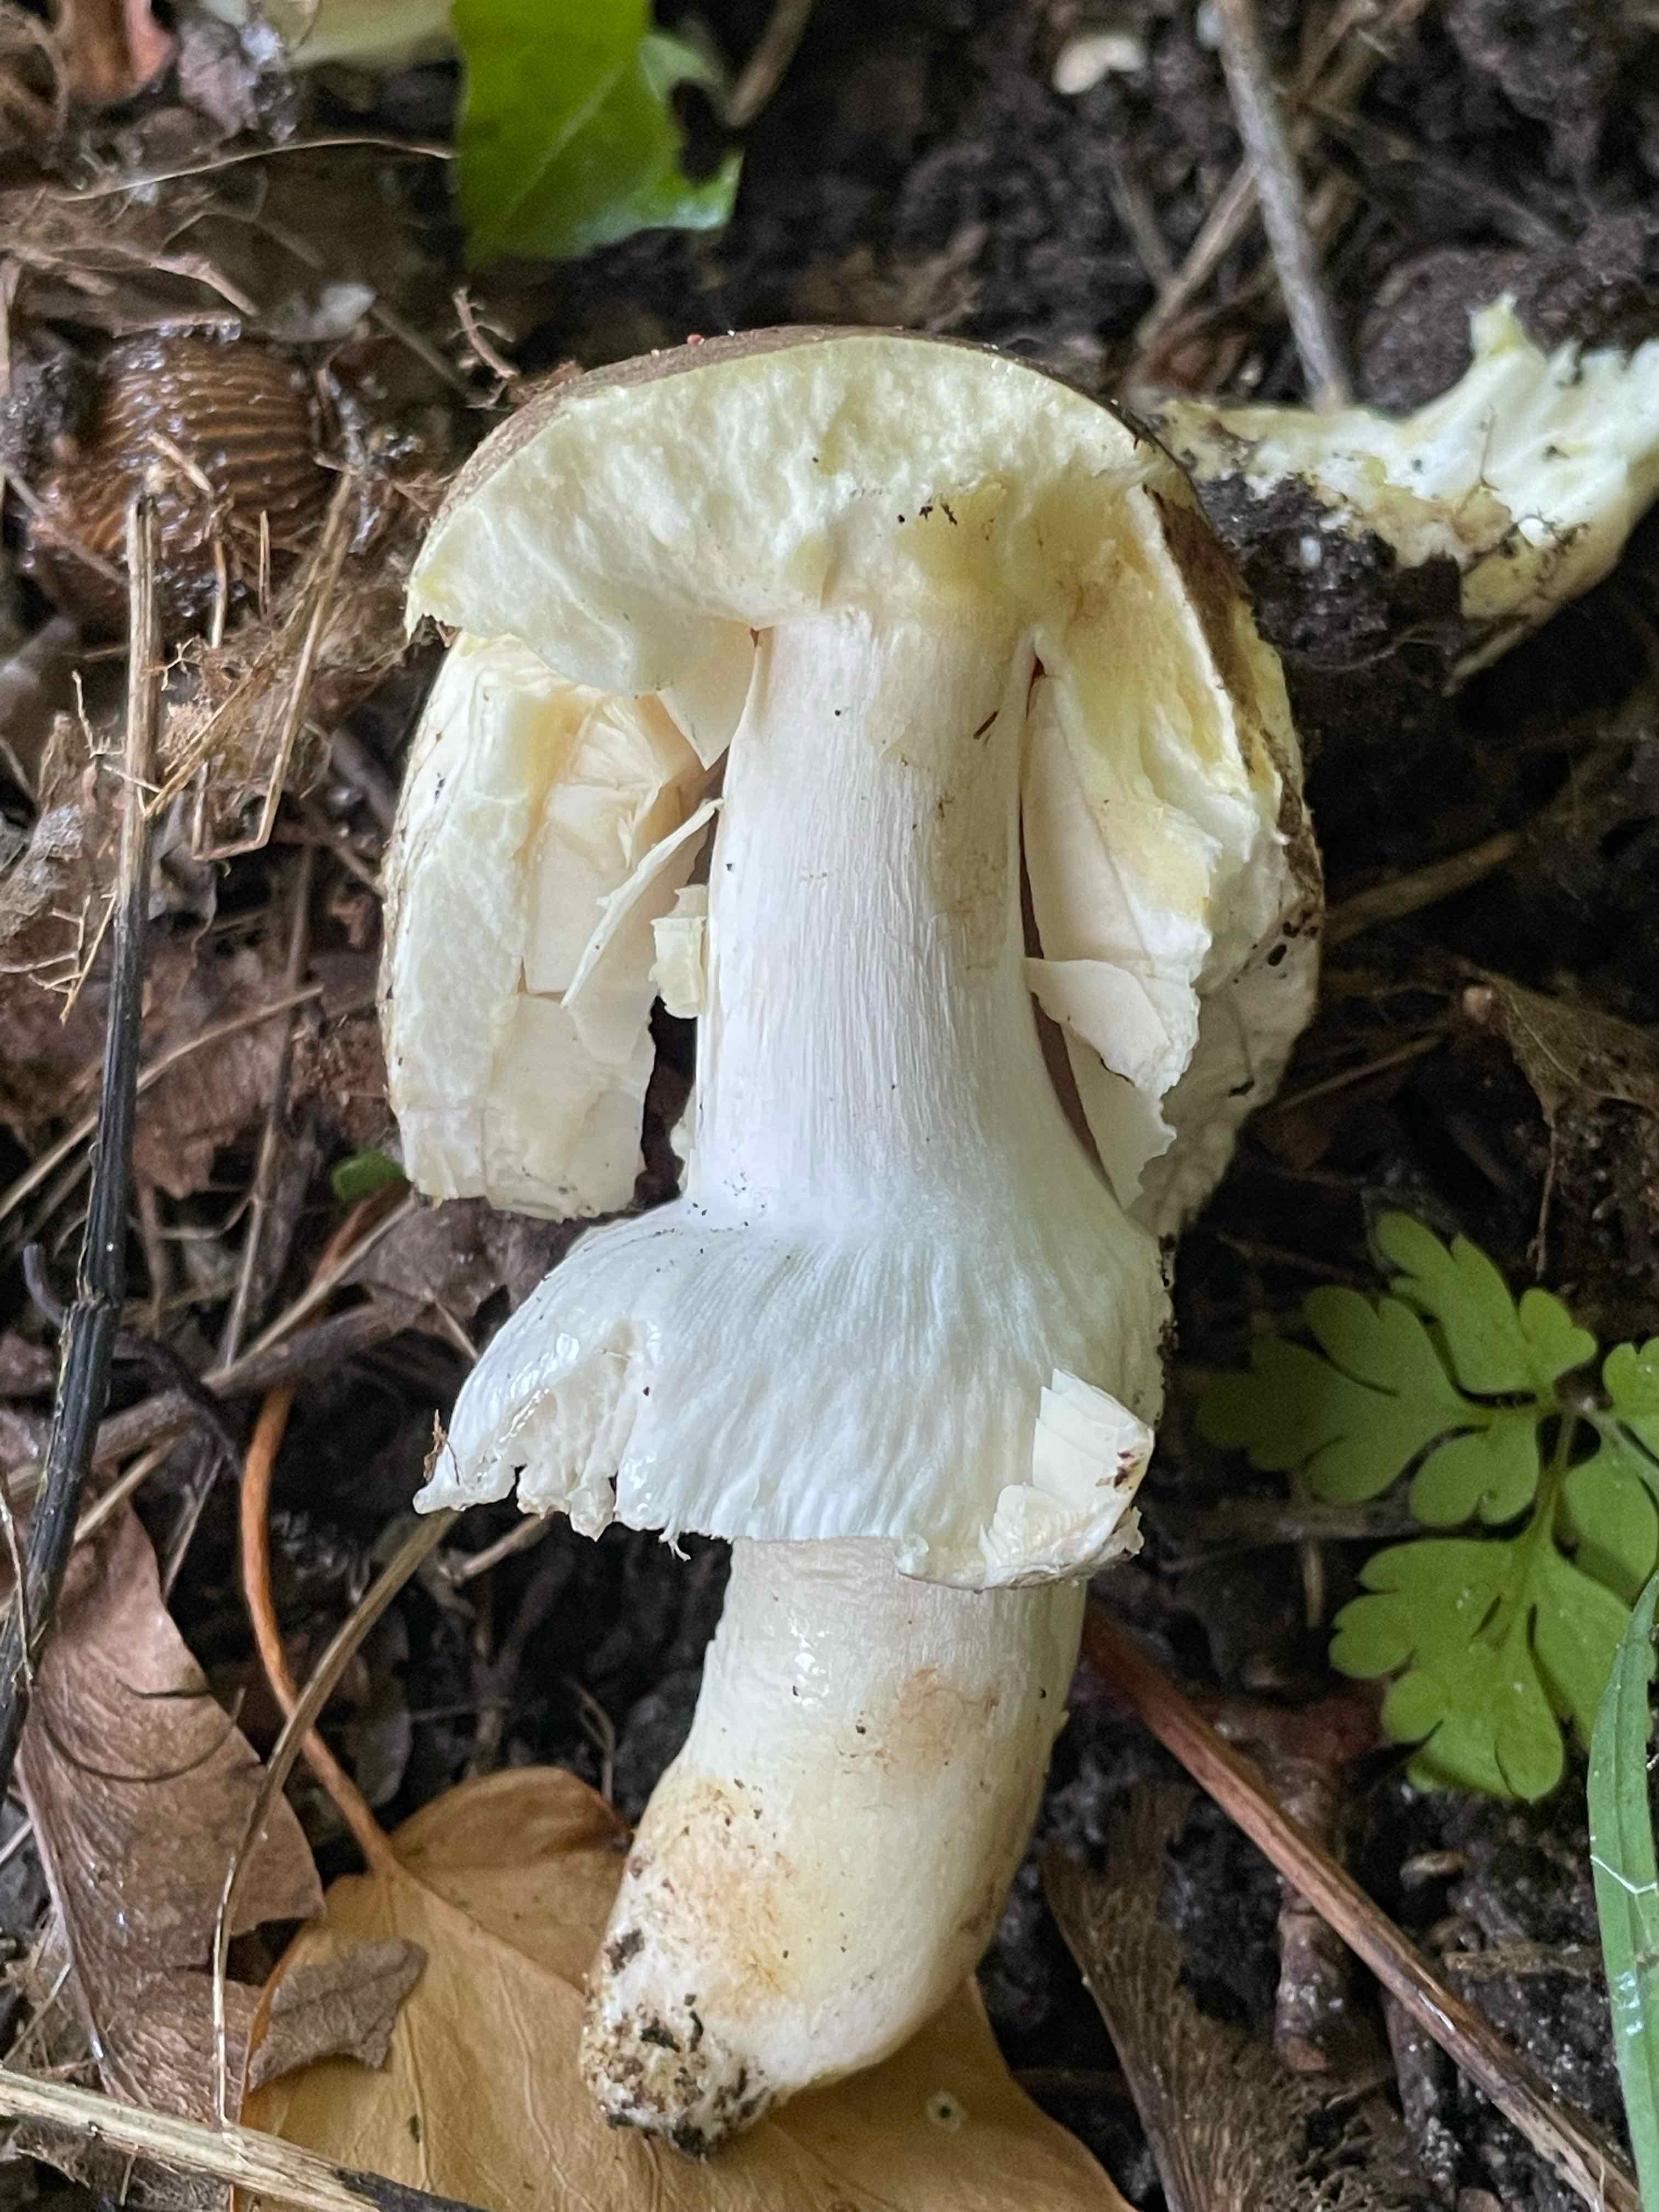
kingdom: Fungi
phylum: Basidiomycota
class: Agaricomycetes
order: Agaricales
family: Agaricaceae
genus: Agaricus
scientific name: Agaricus moelleri
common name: perlehøne-champignon
